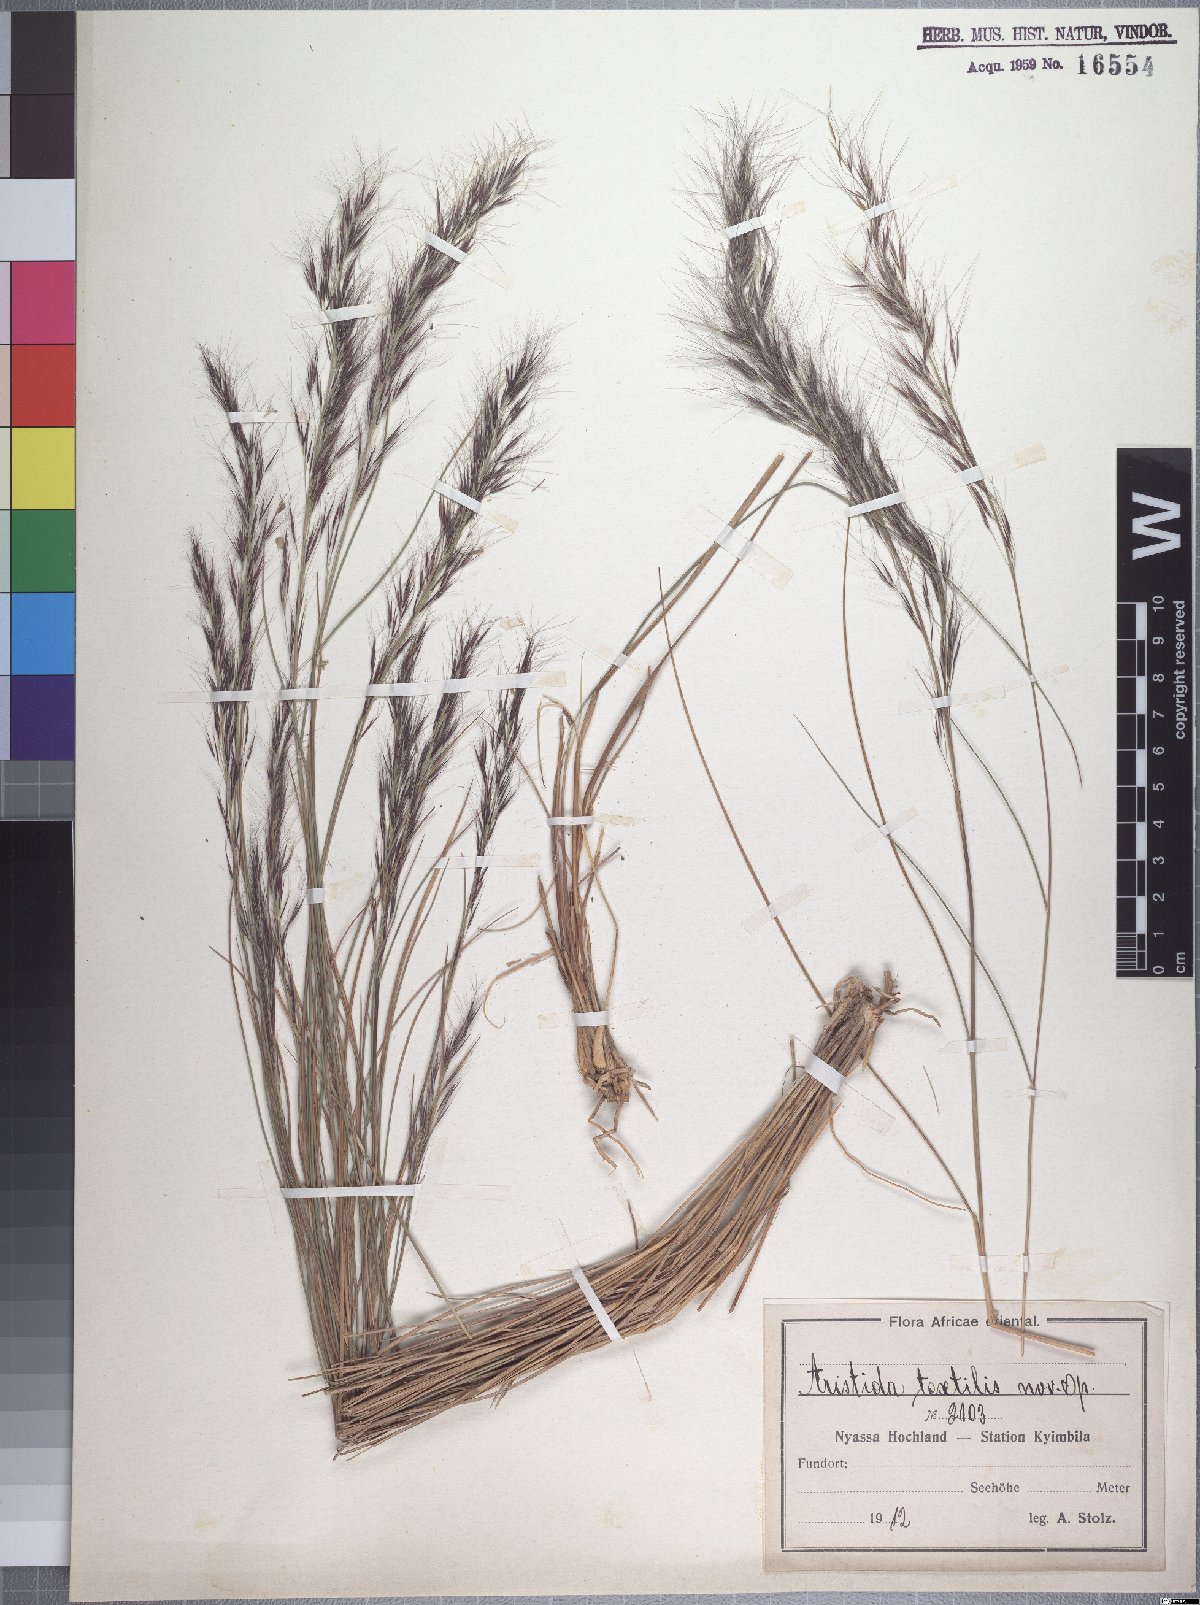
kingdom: Plantae
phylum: Tracheophyta
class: Liliopsida
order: Poales
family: Poaceae
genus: Aristida
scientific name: Aristida junciformis
